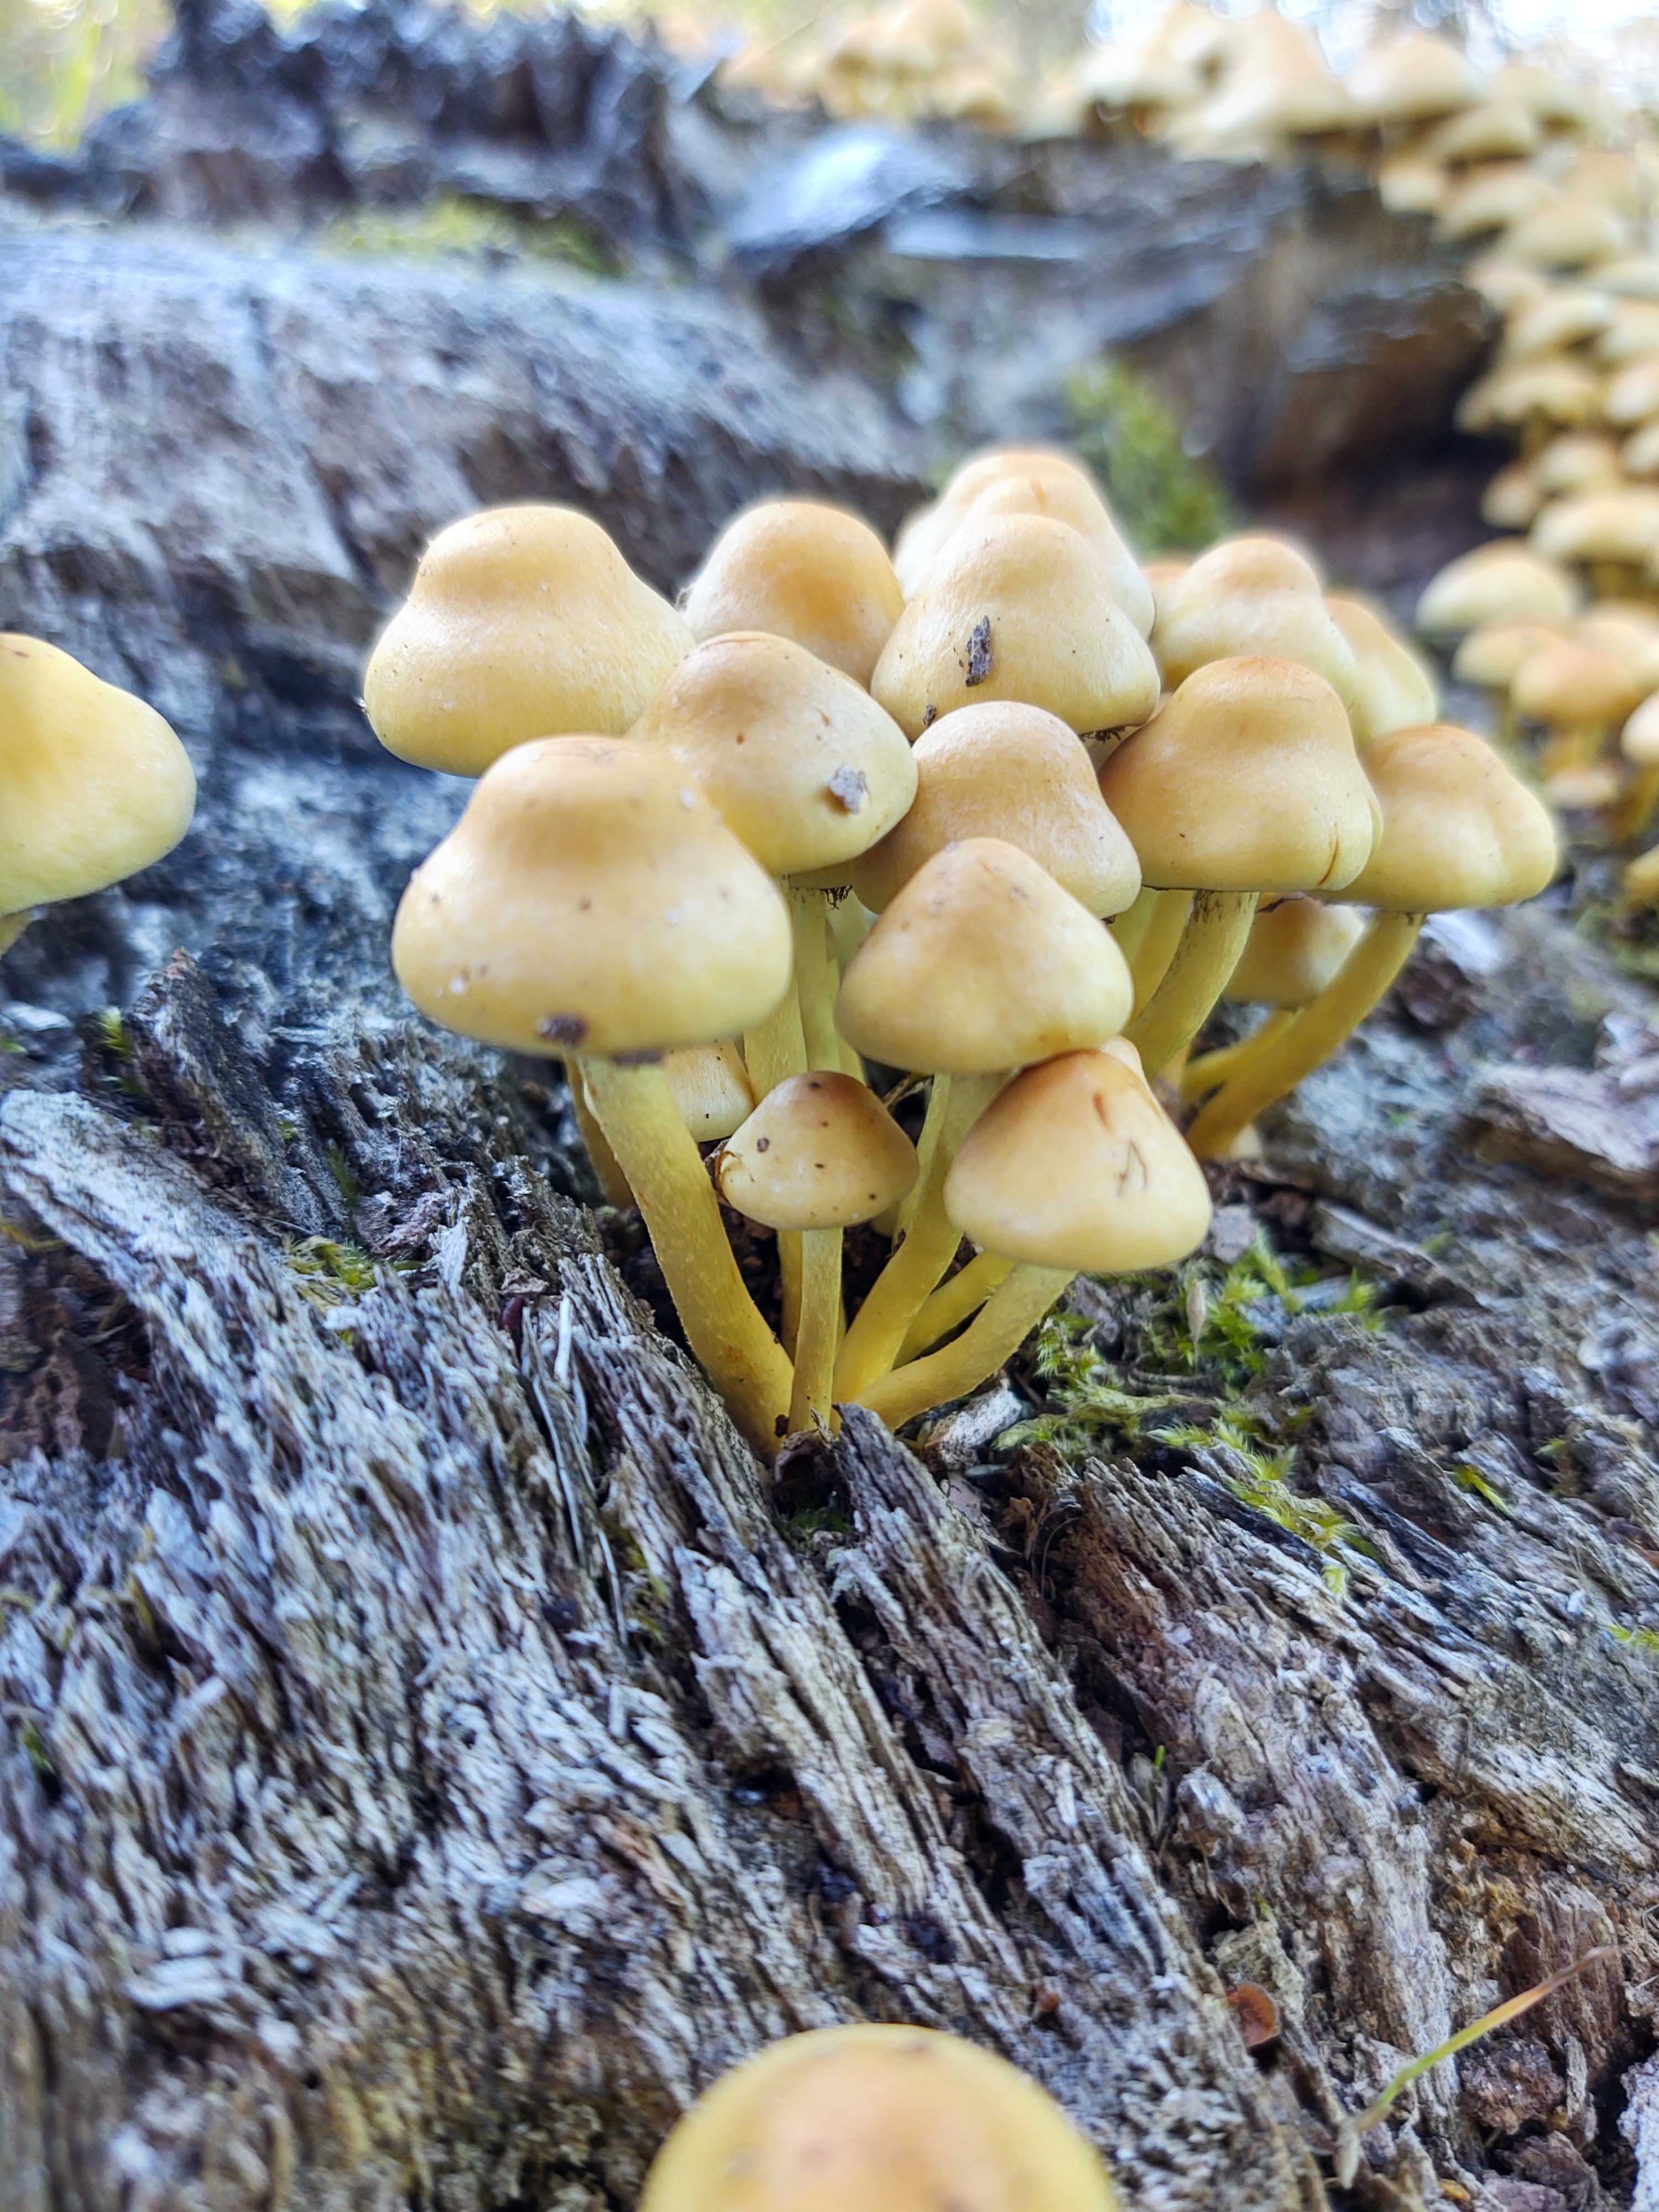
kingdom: Fungi
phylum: Basidiomycota
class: Agaricomycetes
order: Agaricales
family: Strophariaceae
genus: Hypholoma
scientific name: Hypholoma fasciculare
